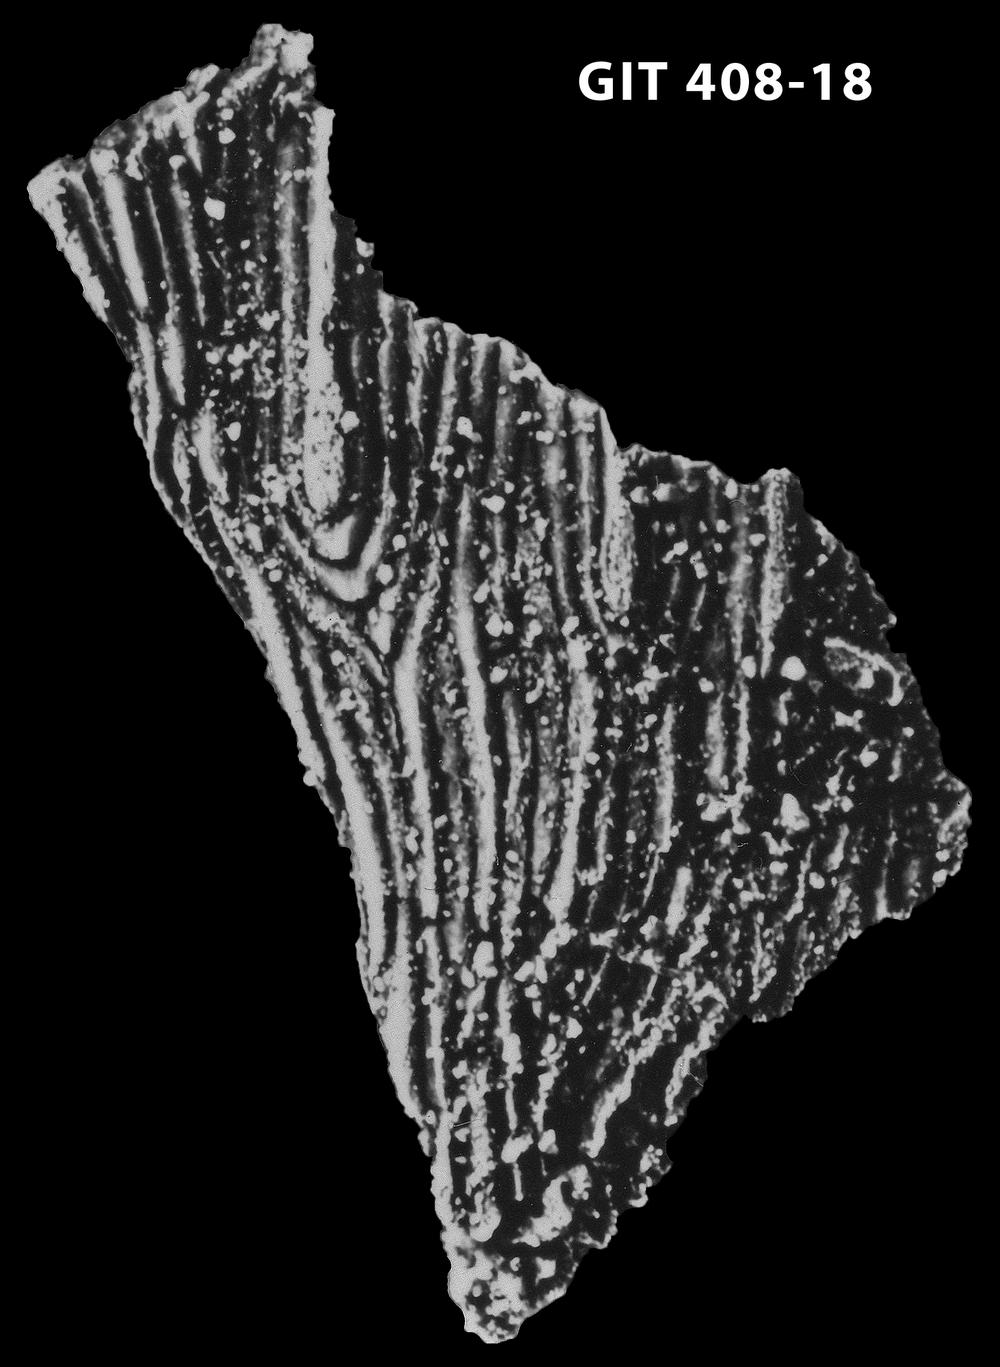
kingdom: Animalia
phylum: Chordata
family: Cyathaspididae
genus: Cyathaspis
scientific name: Cyathaspis
